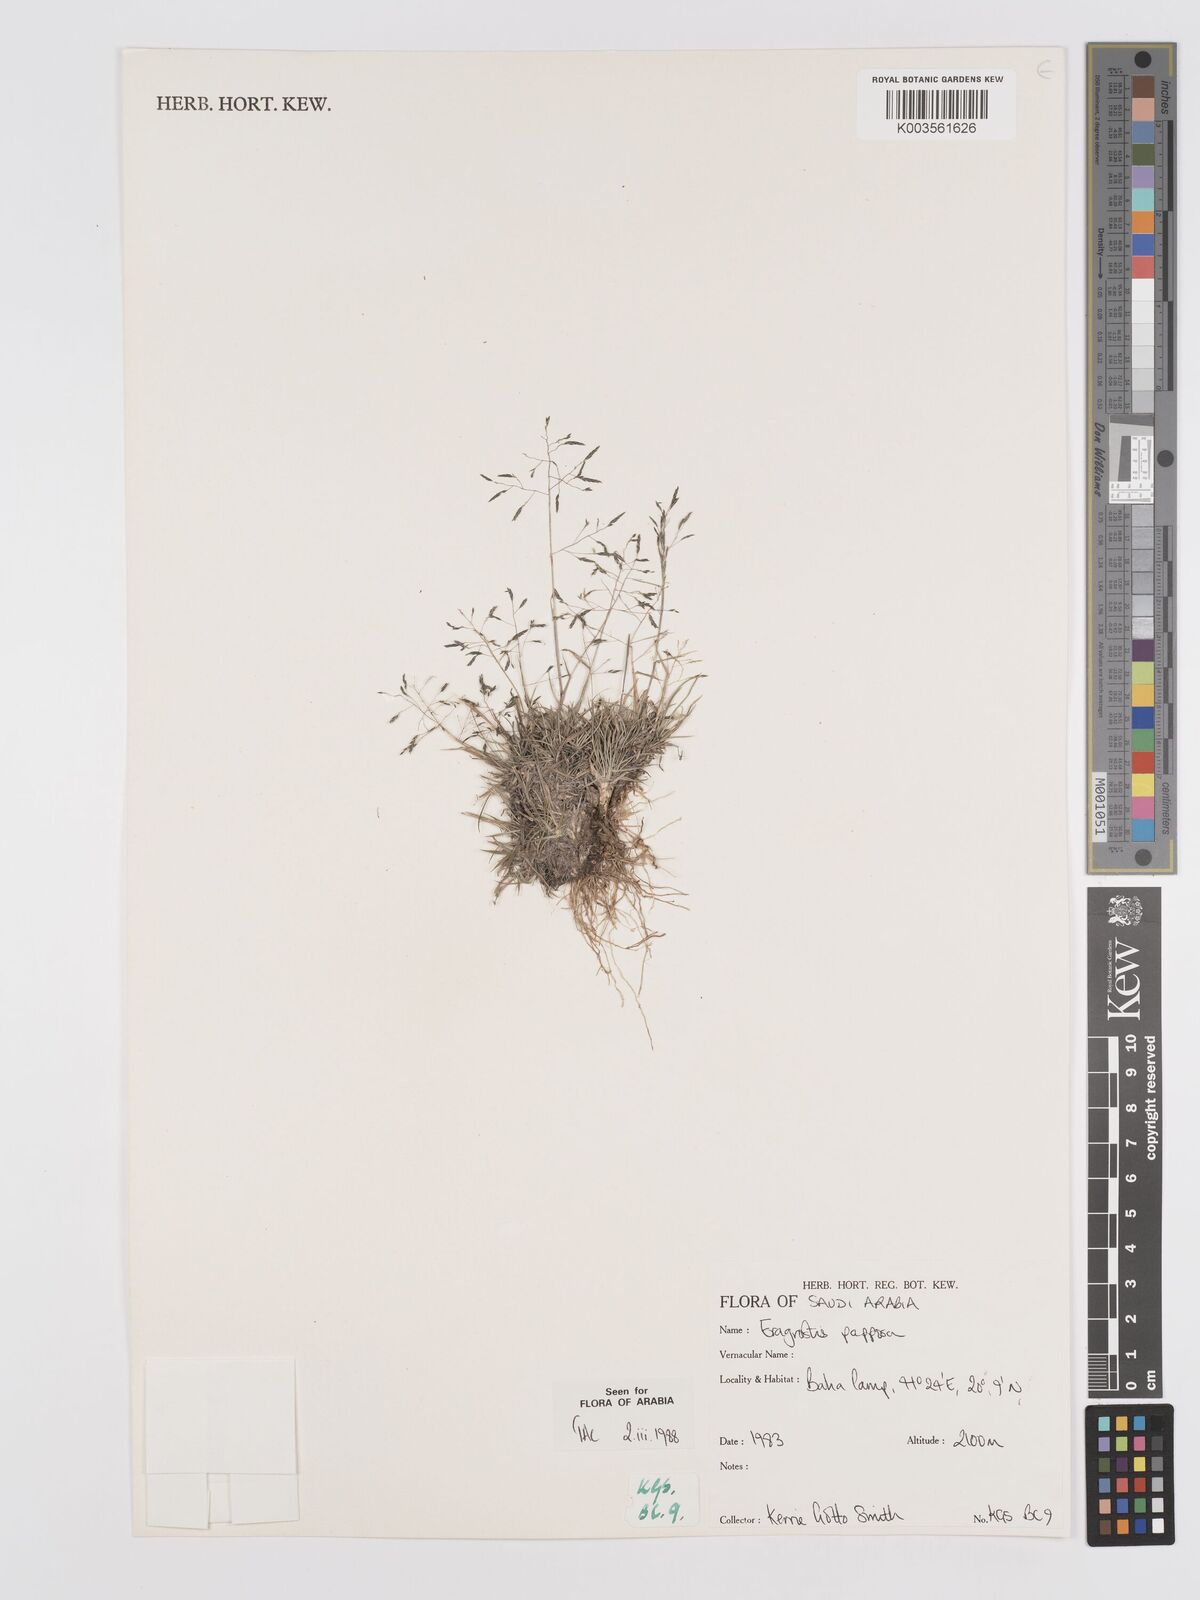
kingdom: Plantae
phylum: Tracheophyta
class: Liliopsida
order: Poales
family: Poaceae
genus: Eragrostis
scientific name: Eragrostis papposa
